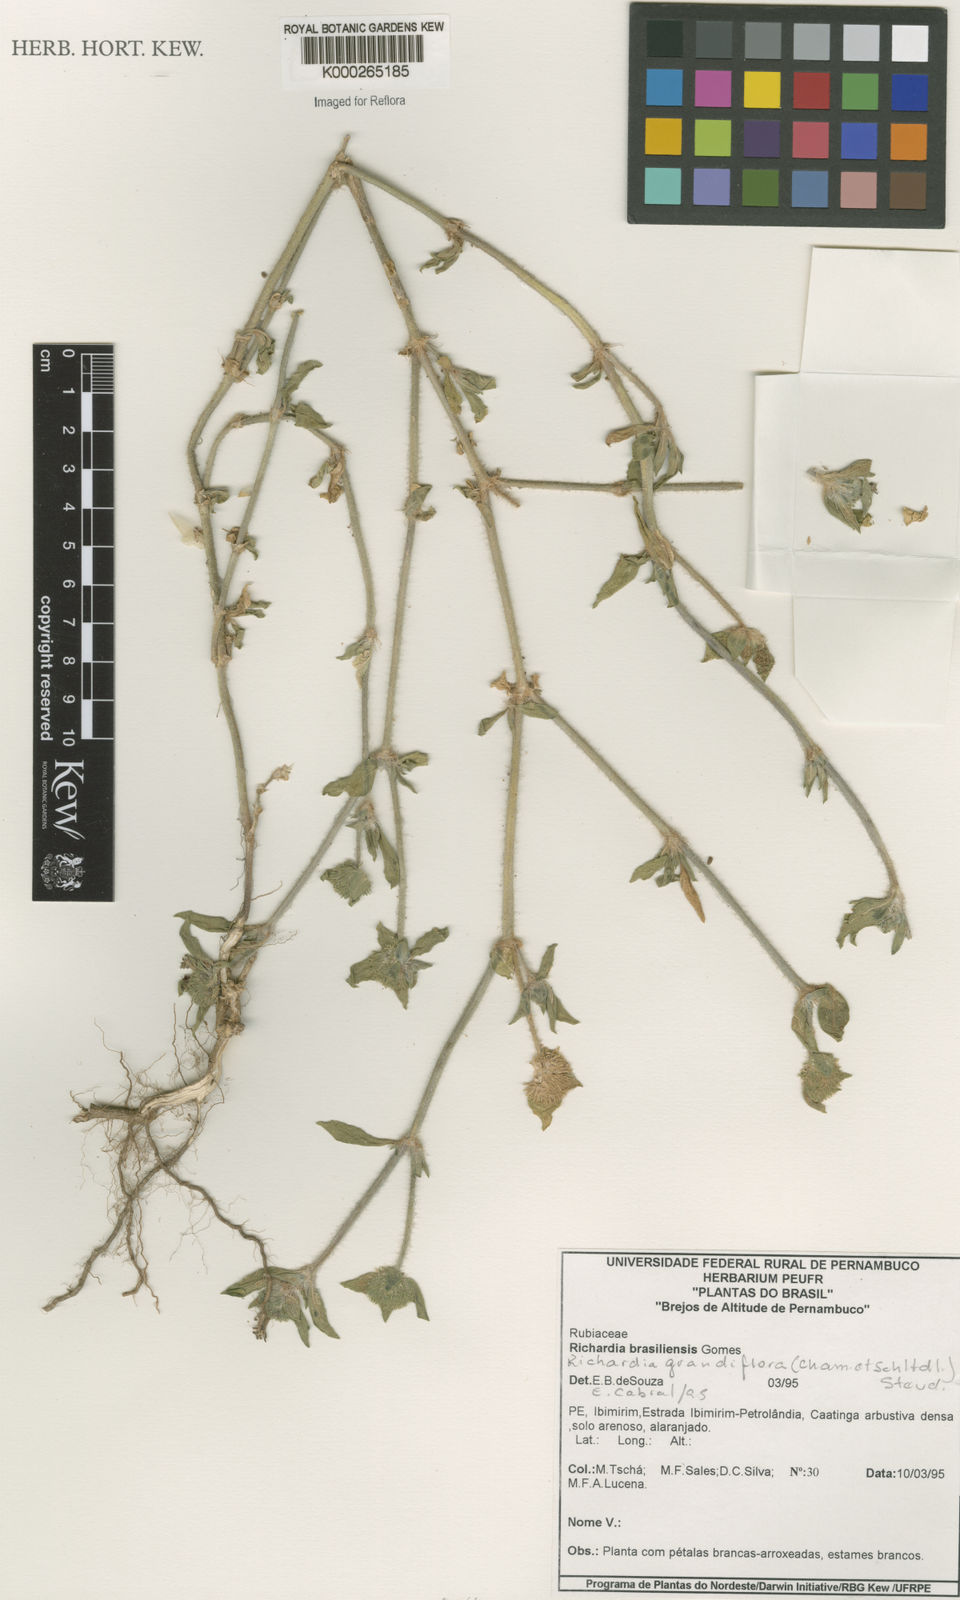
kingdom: Plantae
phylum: Tracheophyta
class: Magnoliopsida
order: Gentianales
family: Rubiaceae
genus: Richardia
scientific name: Richardia grandiflora
